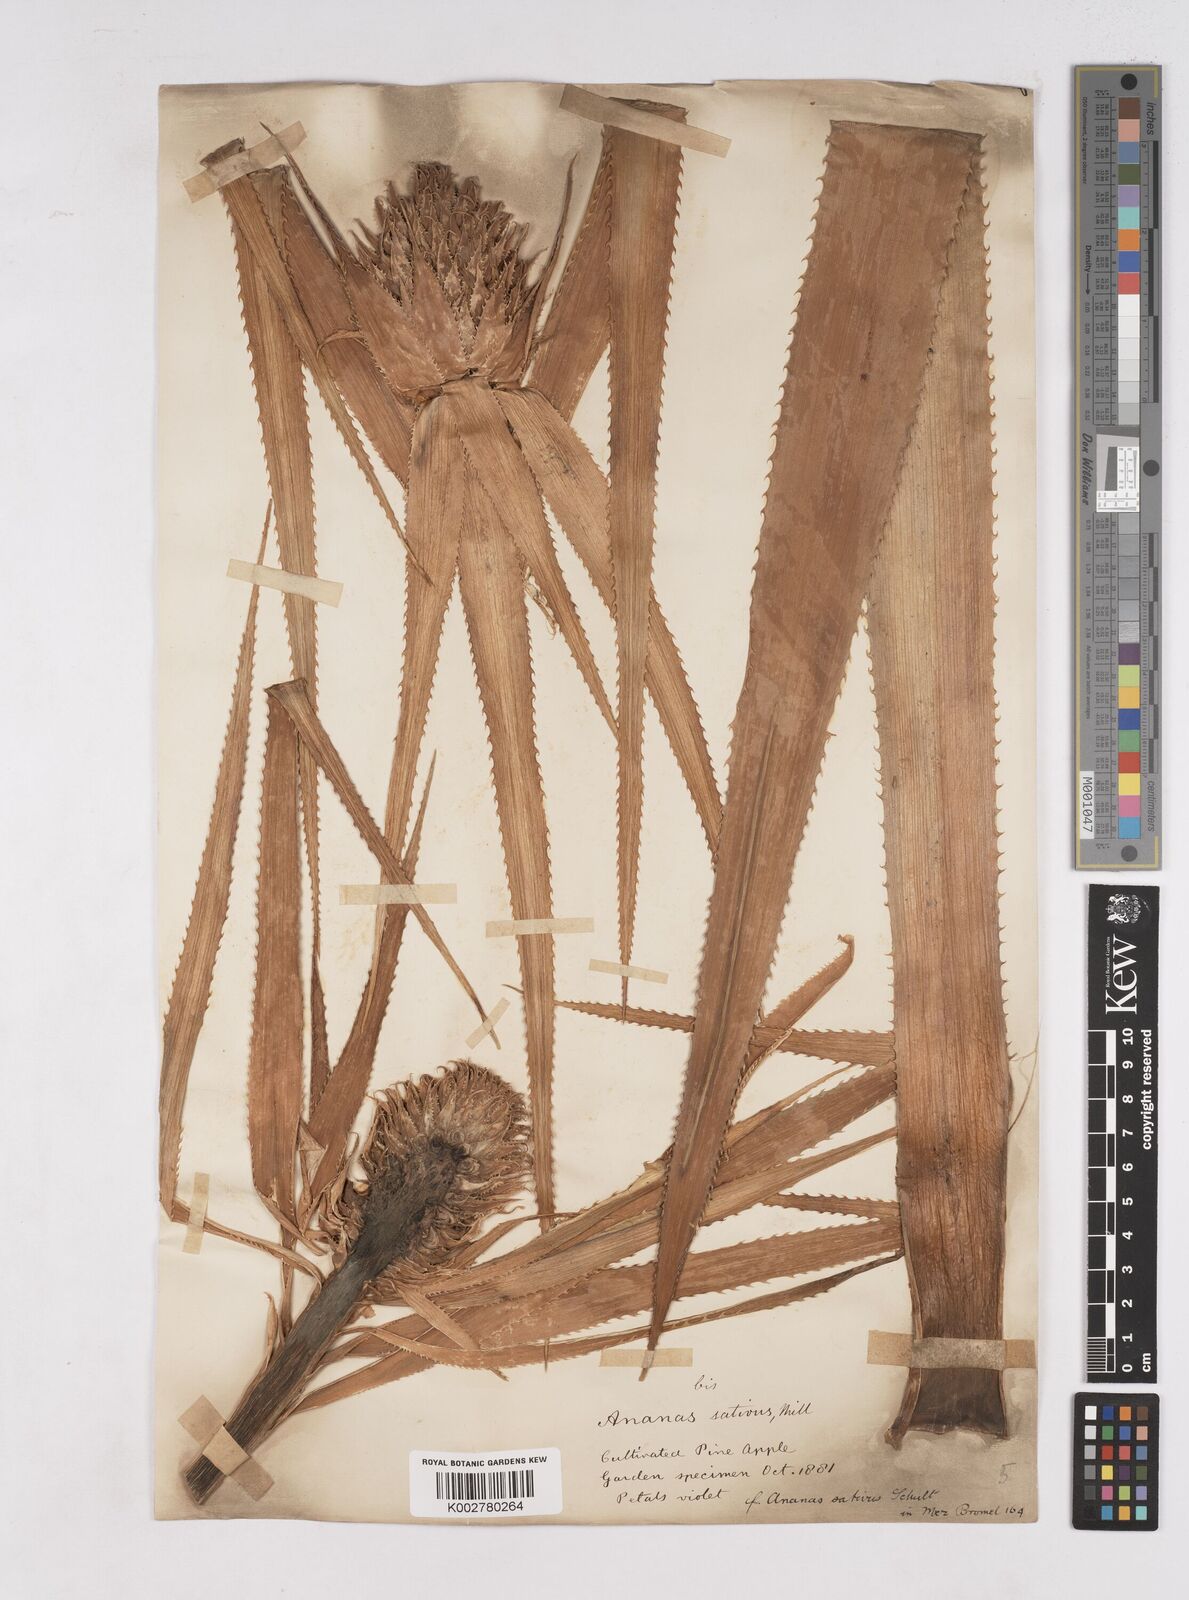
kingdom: Plantae
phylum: Tracheophyta
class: Liliopsida
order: Poales
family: Bromeliaceae
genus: Ananas
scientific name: Ananas comosus
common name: Pineapple
